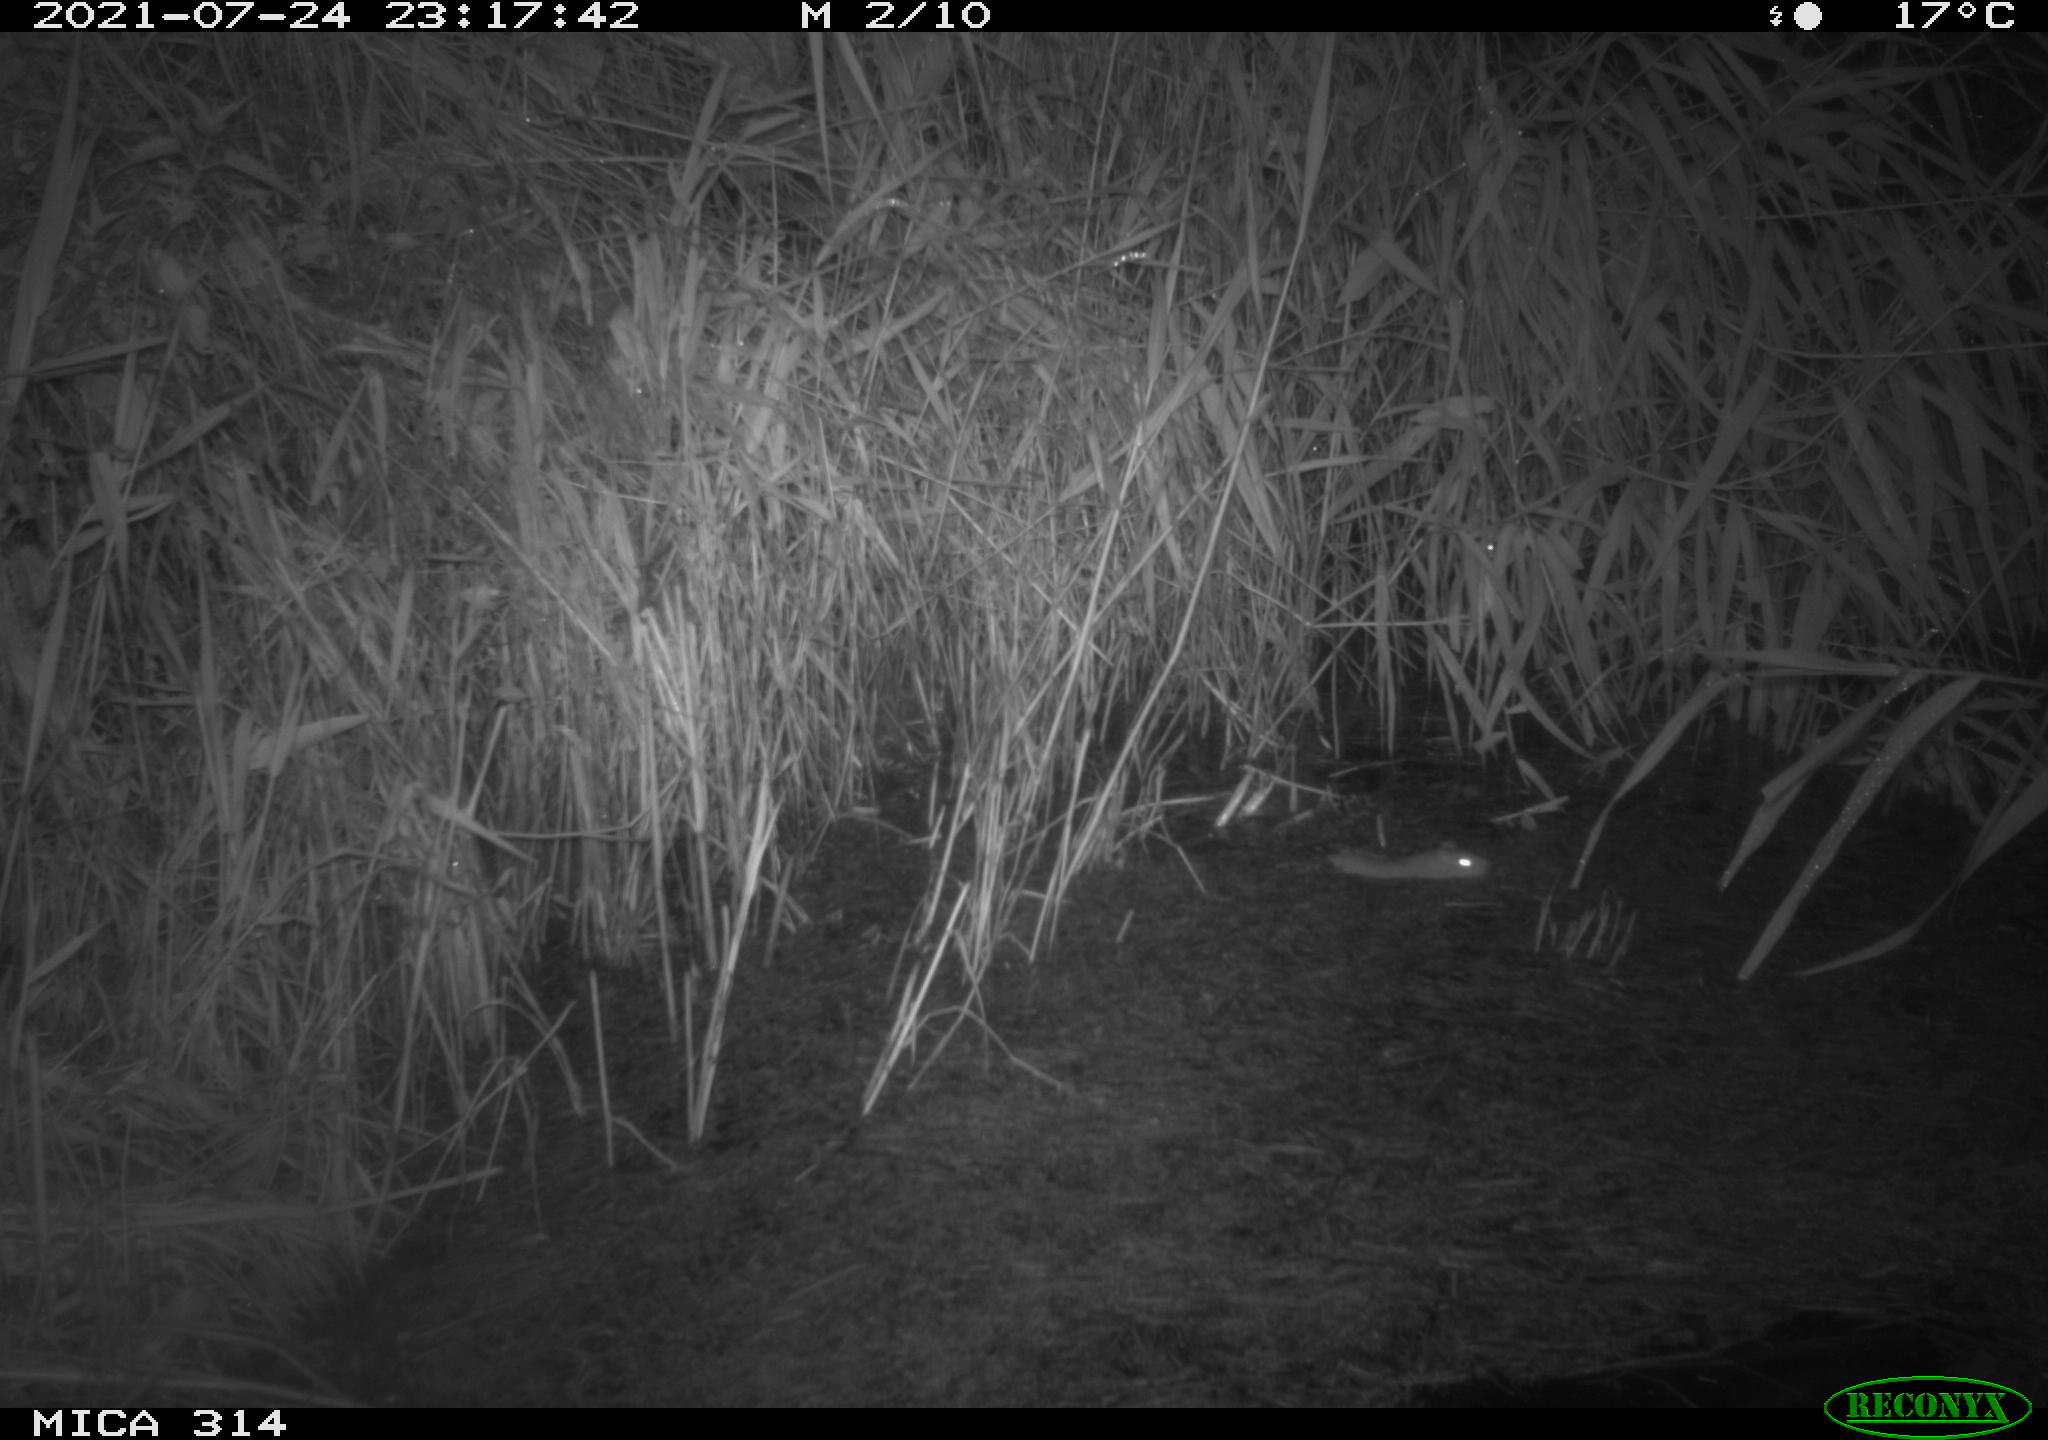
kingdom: Animalia
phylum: Chordata
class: Mammalia
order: Rodentia
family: Muridae
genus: Rattus
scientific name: Rattus norvegicus
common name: Brown rat
